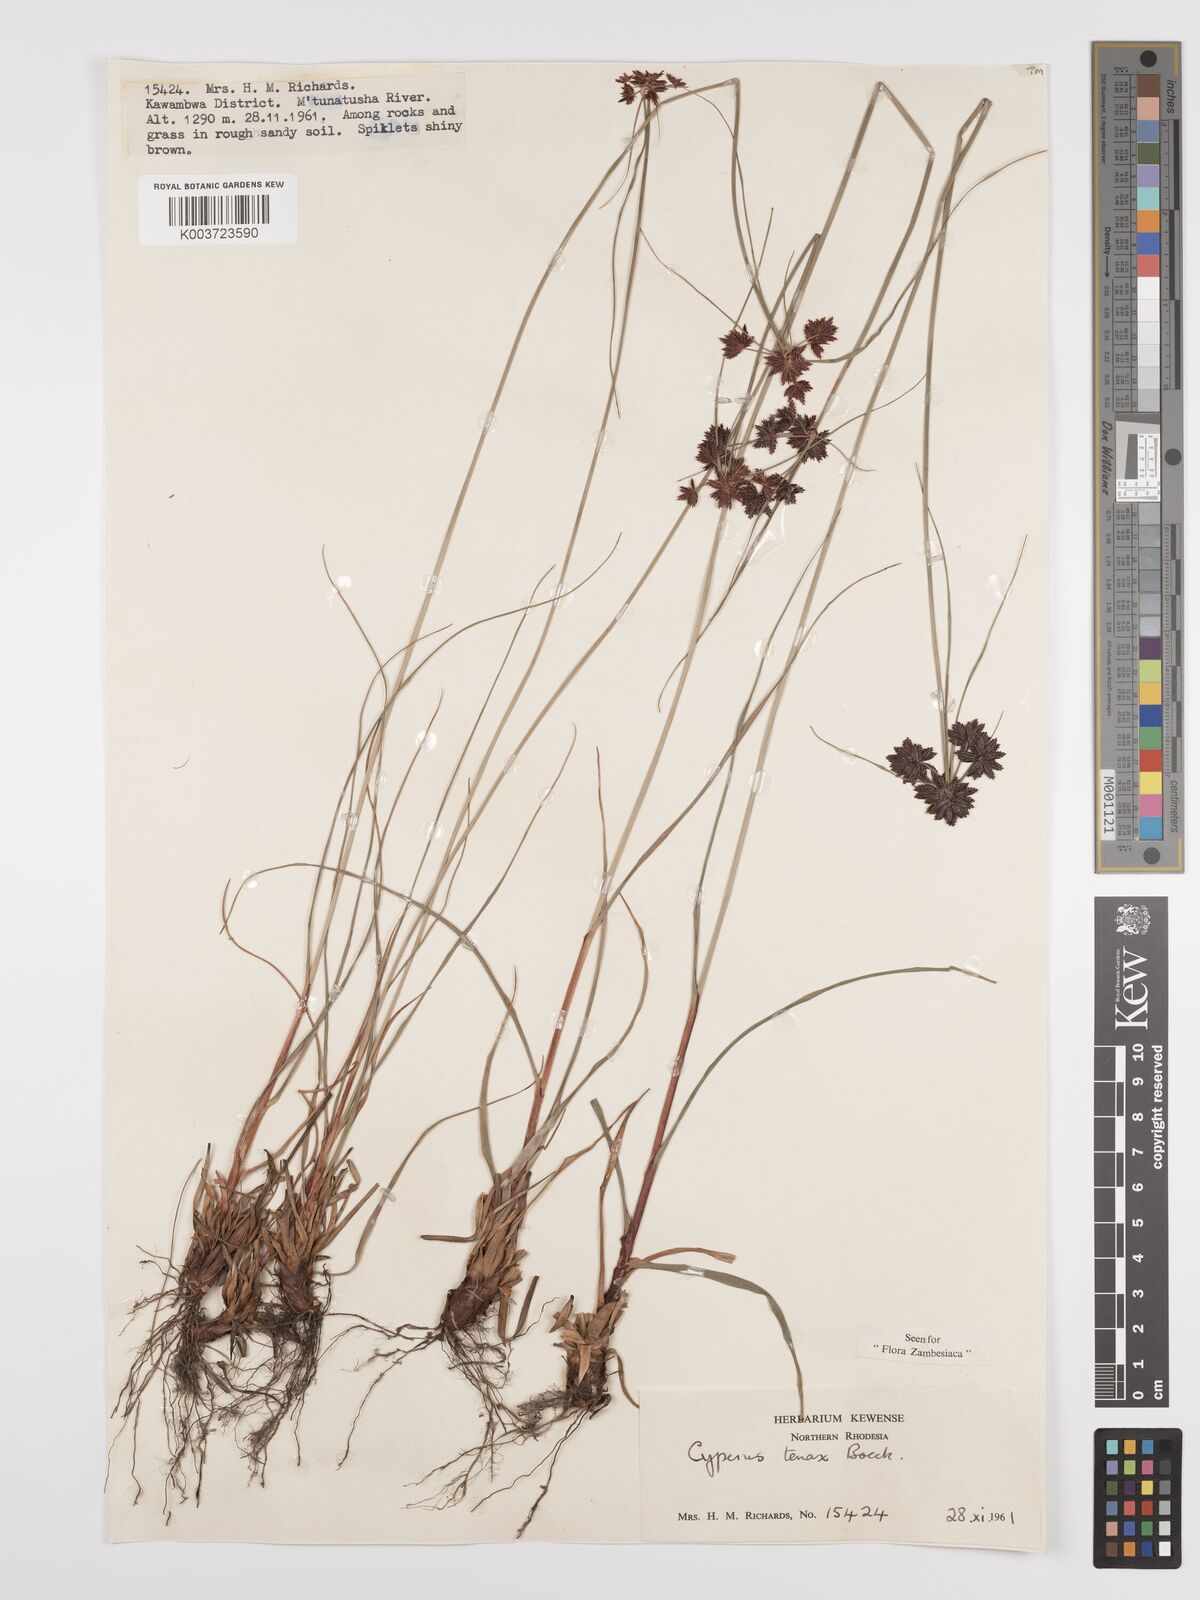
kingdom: Plantae
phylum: Tracheophyta
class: Liliopsida
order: Poales
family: Cyperaceae
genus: Cyperus
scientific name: Cyperus tenax
